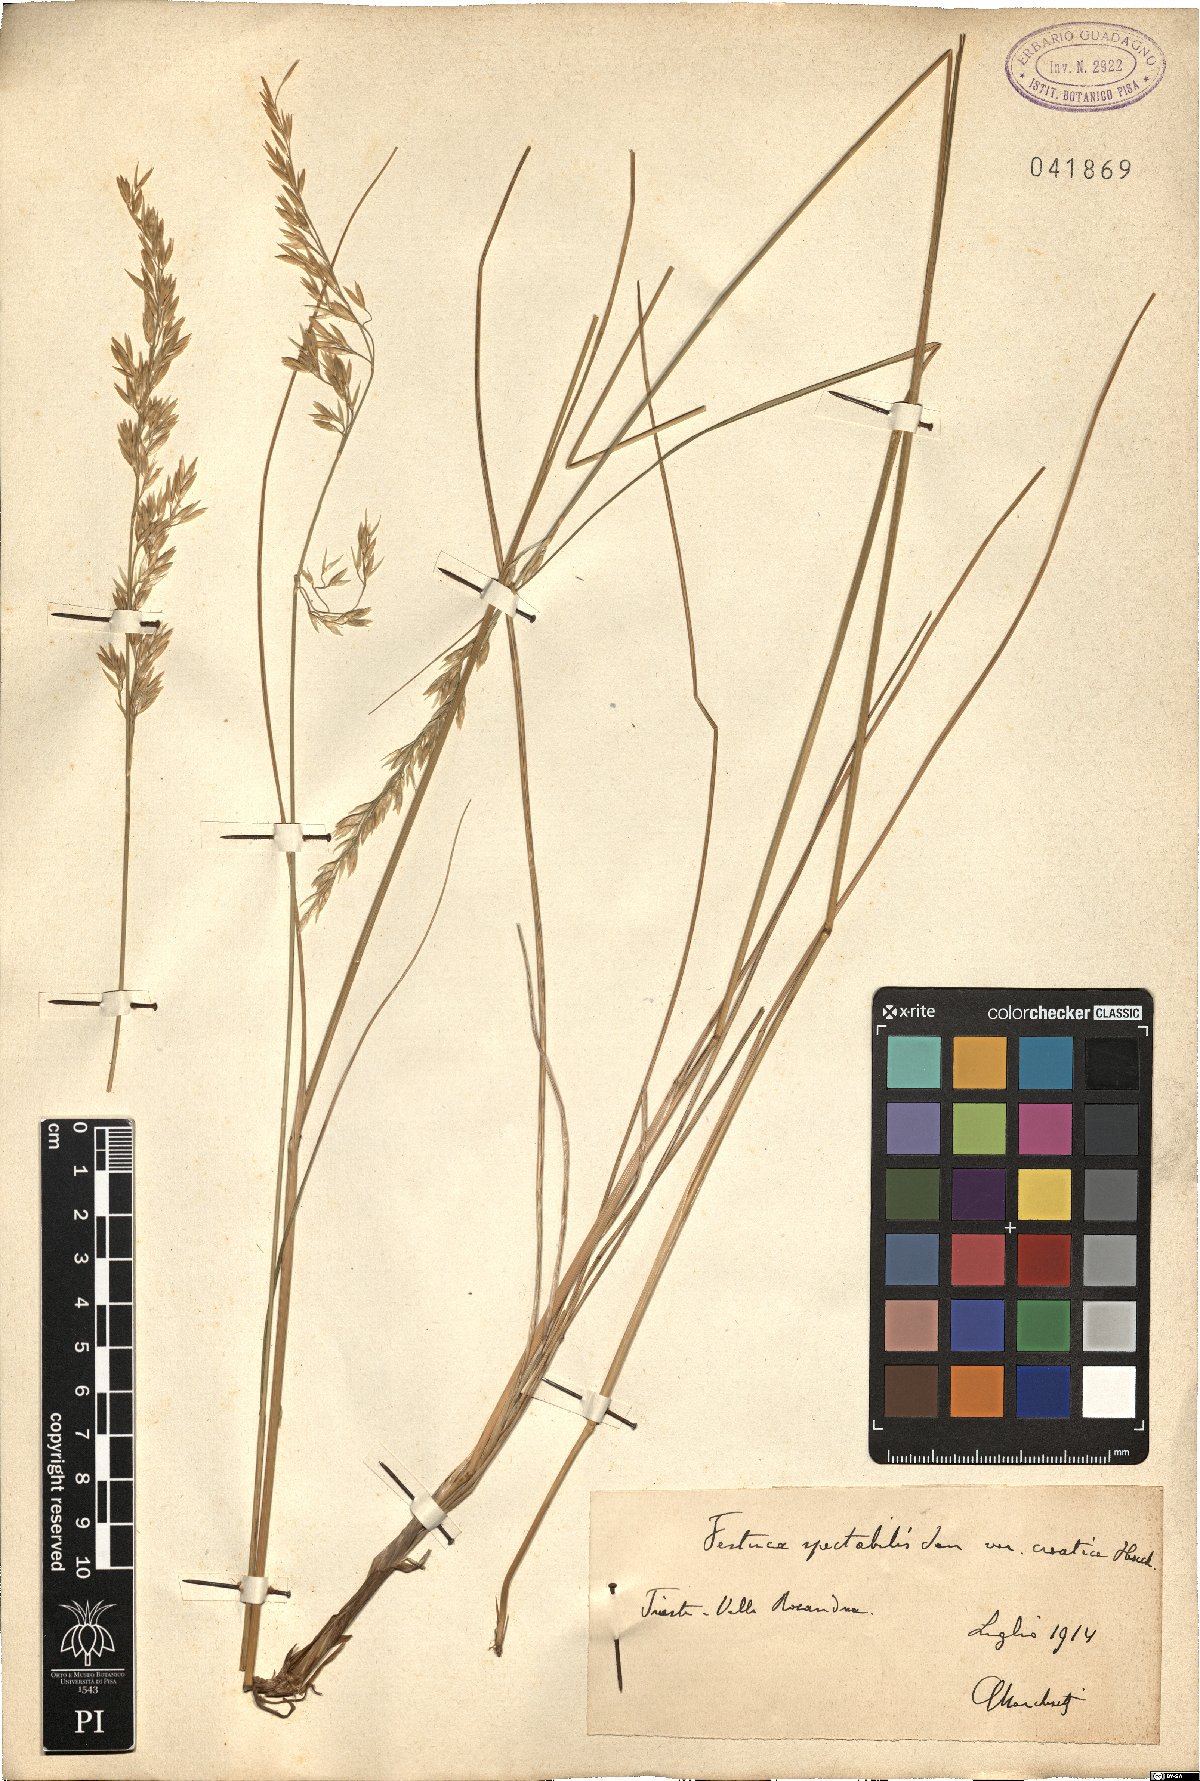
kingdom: Plantae
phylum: Tracheophyta
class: Liliopsida
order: Poales
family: Poaceae
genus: Festuca
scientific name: Festuca spectabilis
